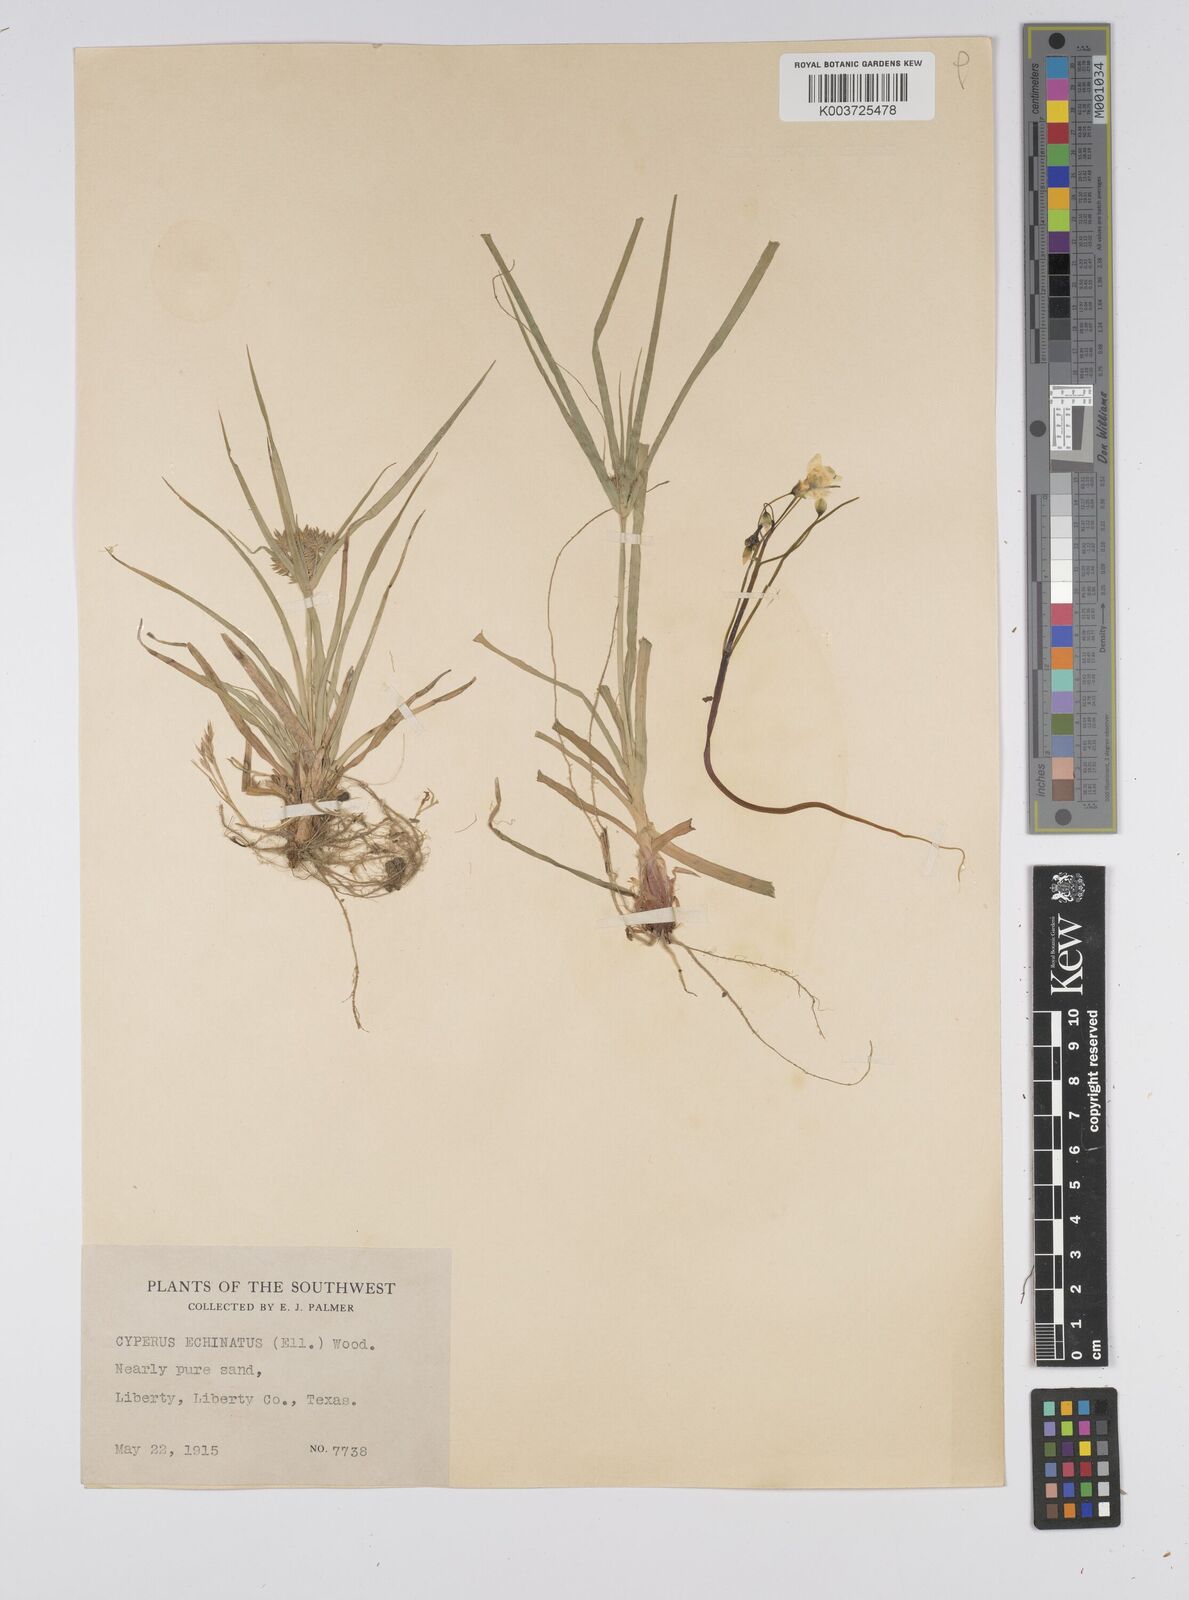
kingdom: Plantae
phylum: Tracheophyta
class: Liliopsida
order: Poales
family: Cyperaceae
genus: Cyperus
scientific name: Cyperus luzulae
